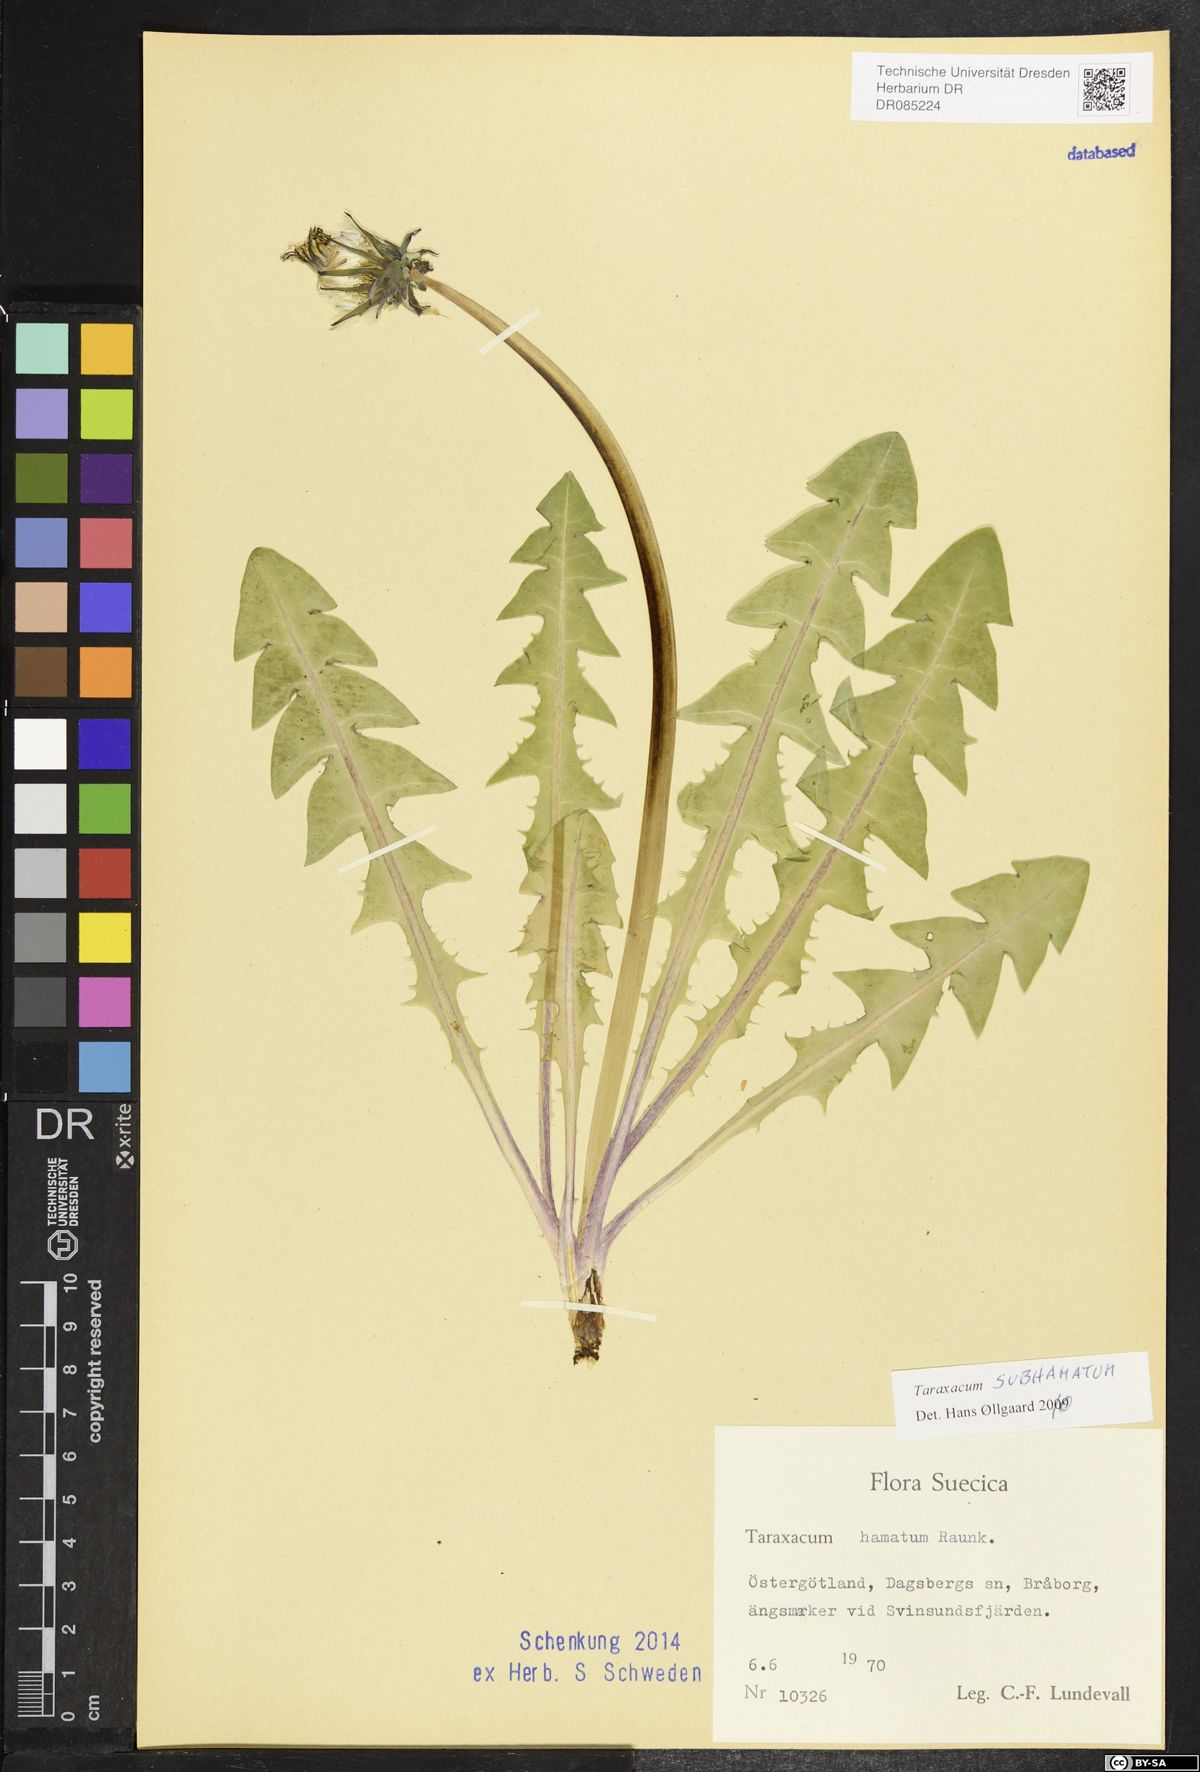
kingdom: Plantae
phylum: Tracheophyta
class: Magnoliopsida
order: Asterales
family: Asteraceae
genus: Taraxacum
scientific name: Taraxacum subhamatum
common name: Large hook-lobed dandelion
